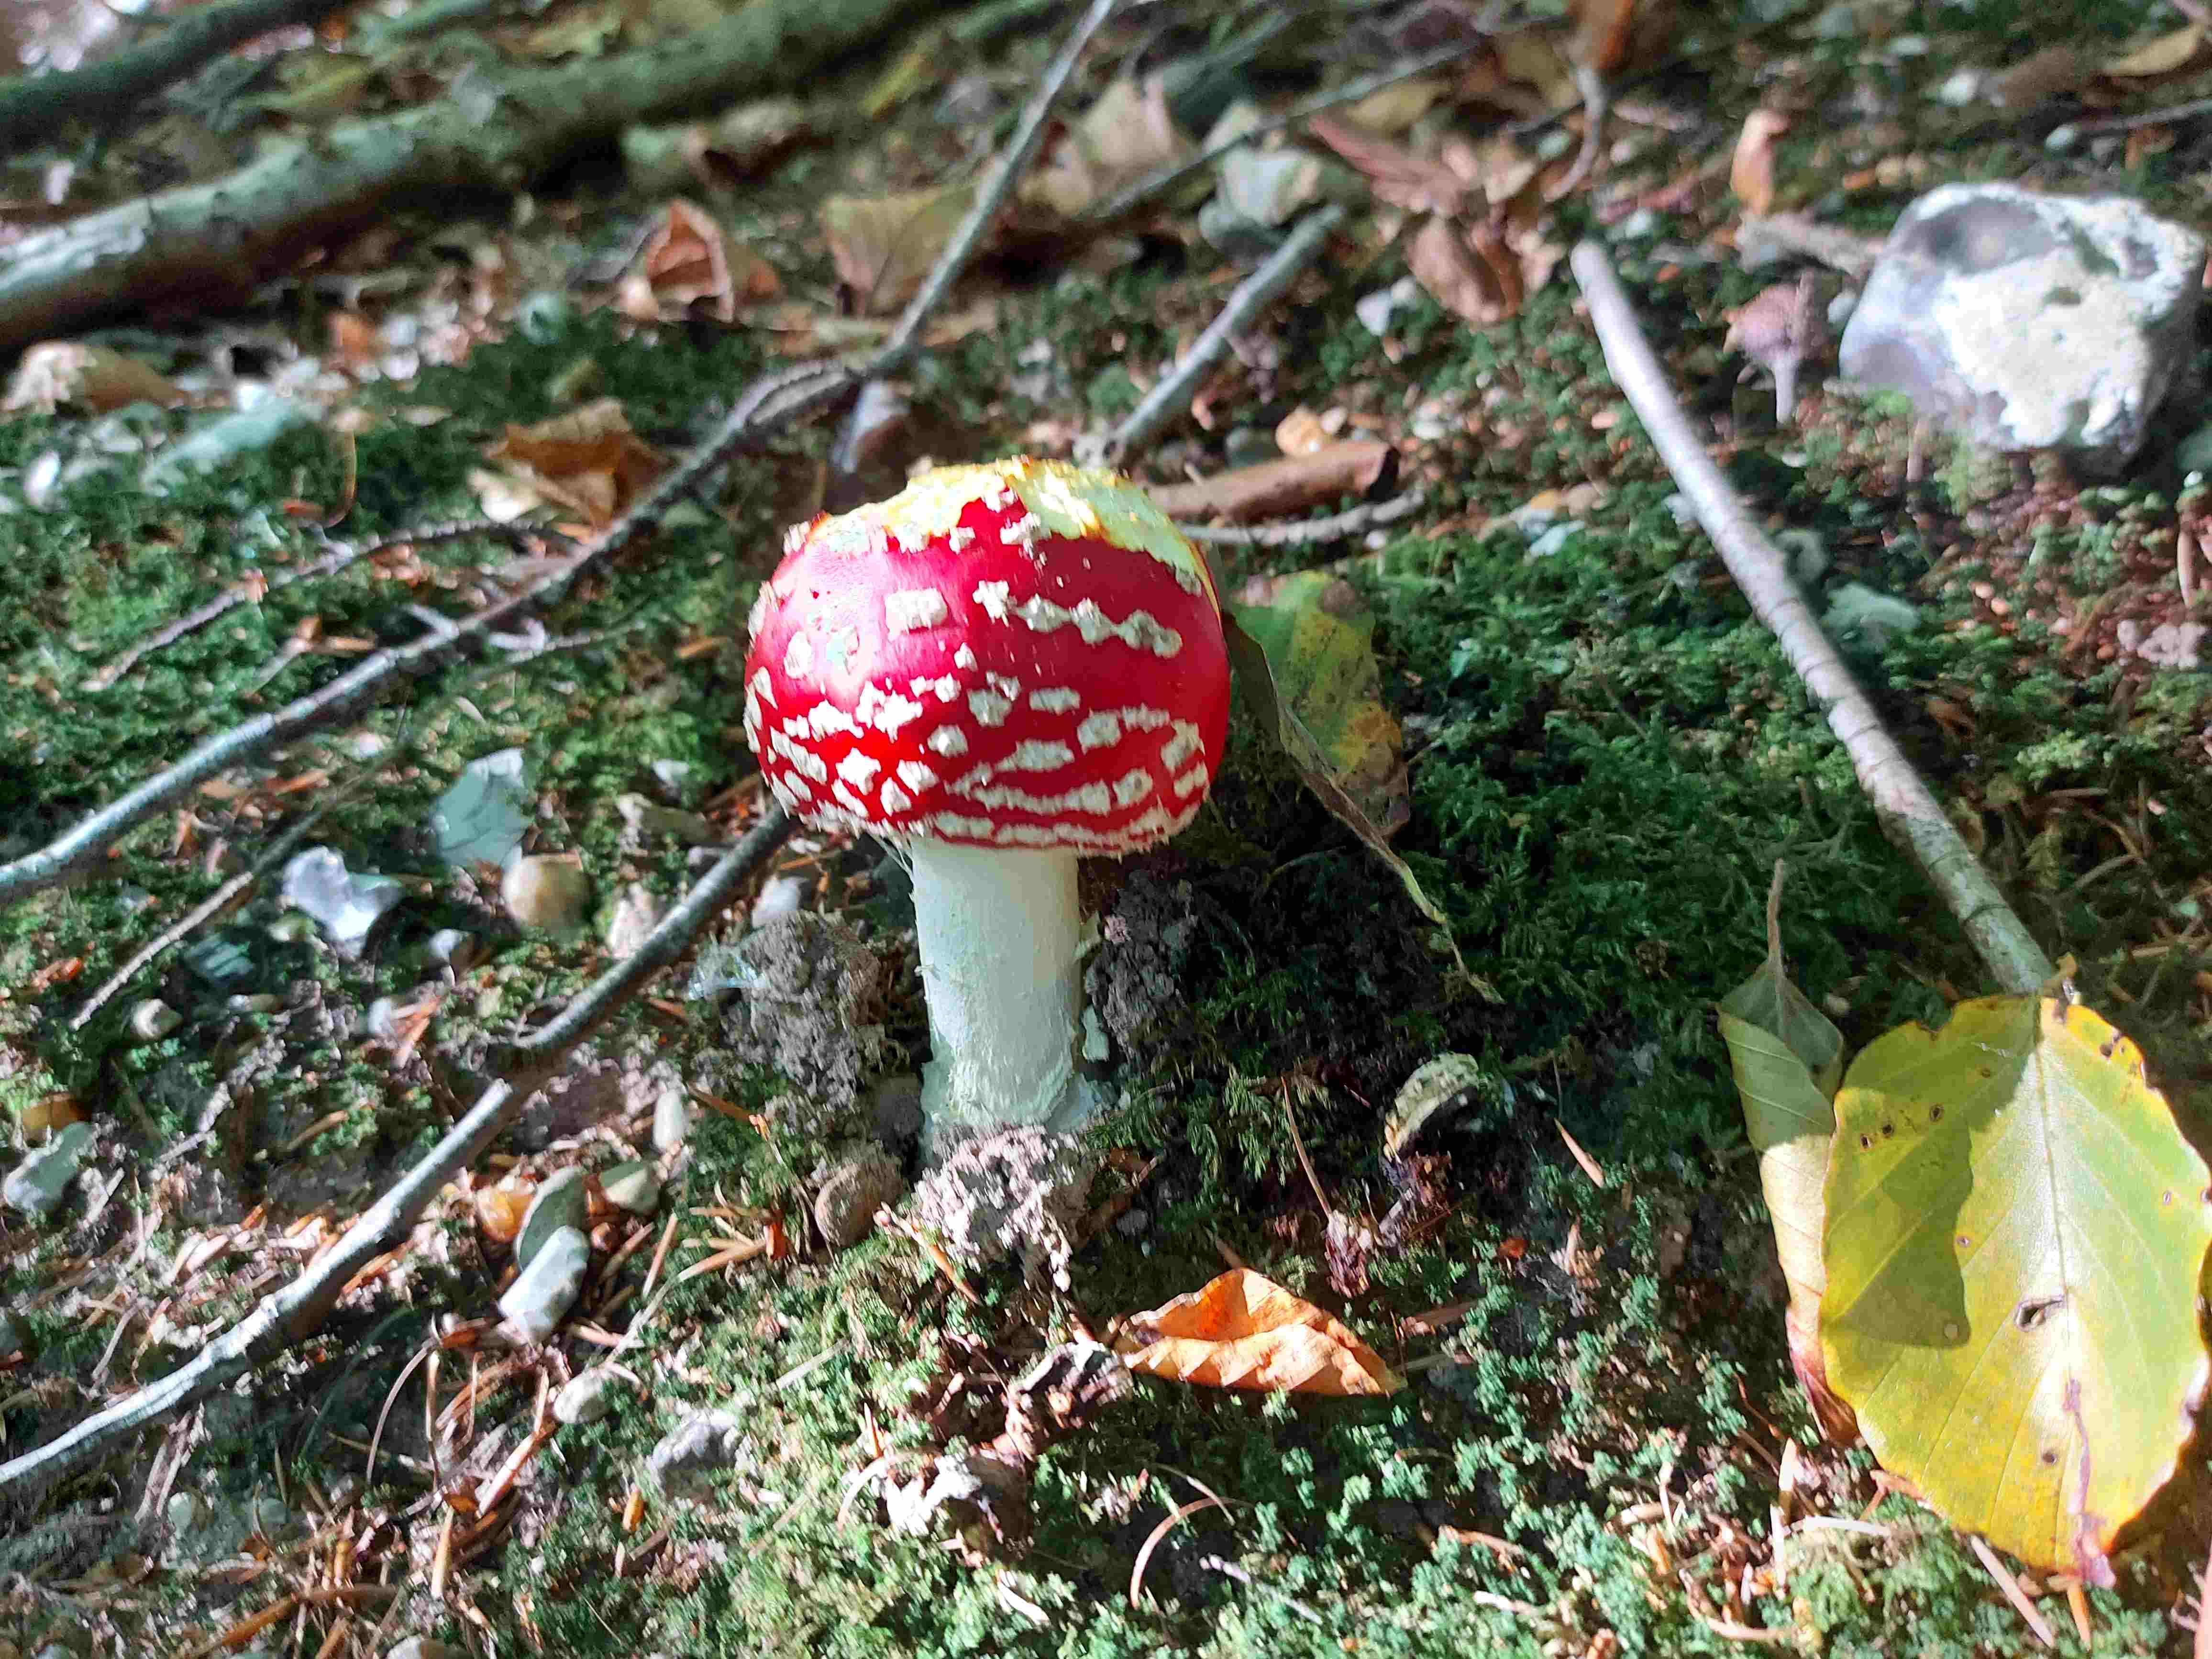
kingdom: Fungi
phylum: Basidiomycota
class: Agaricomycetes
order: Agaricales
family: Amanitaceae
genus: Amanita
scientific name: Amanita muscaria
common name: rød fluesvamp
